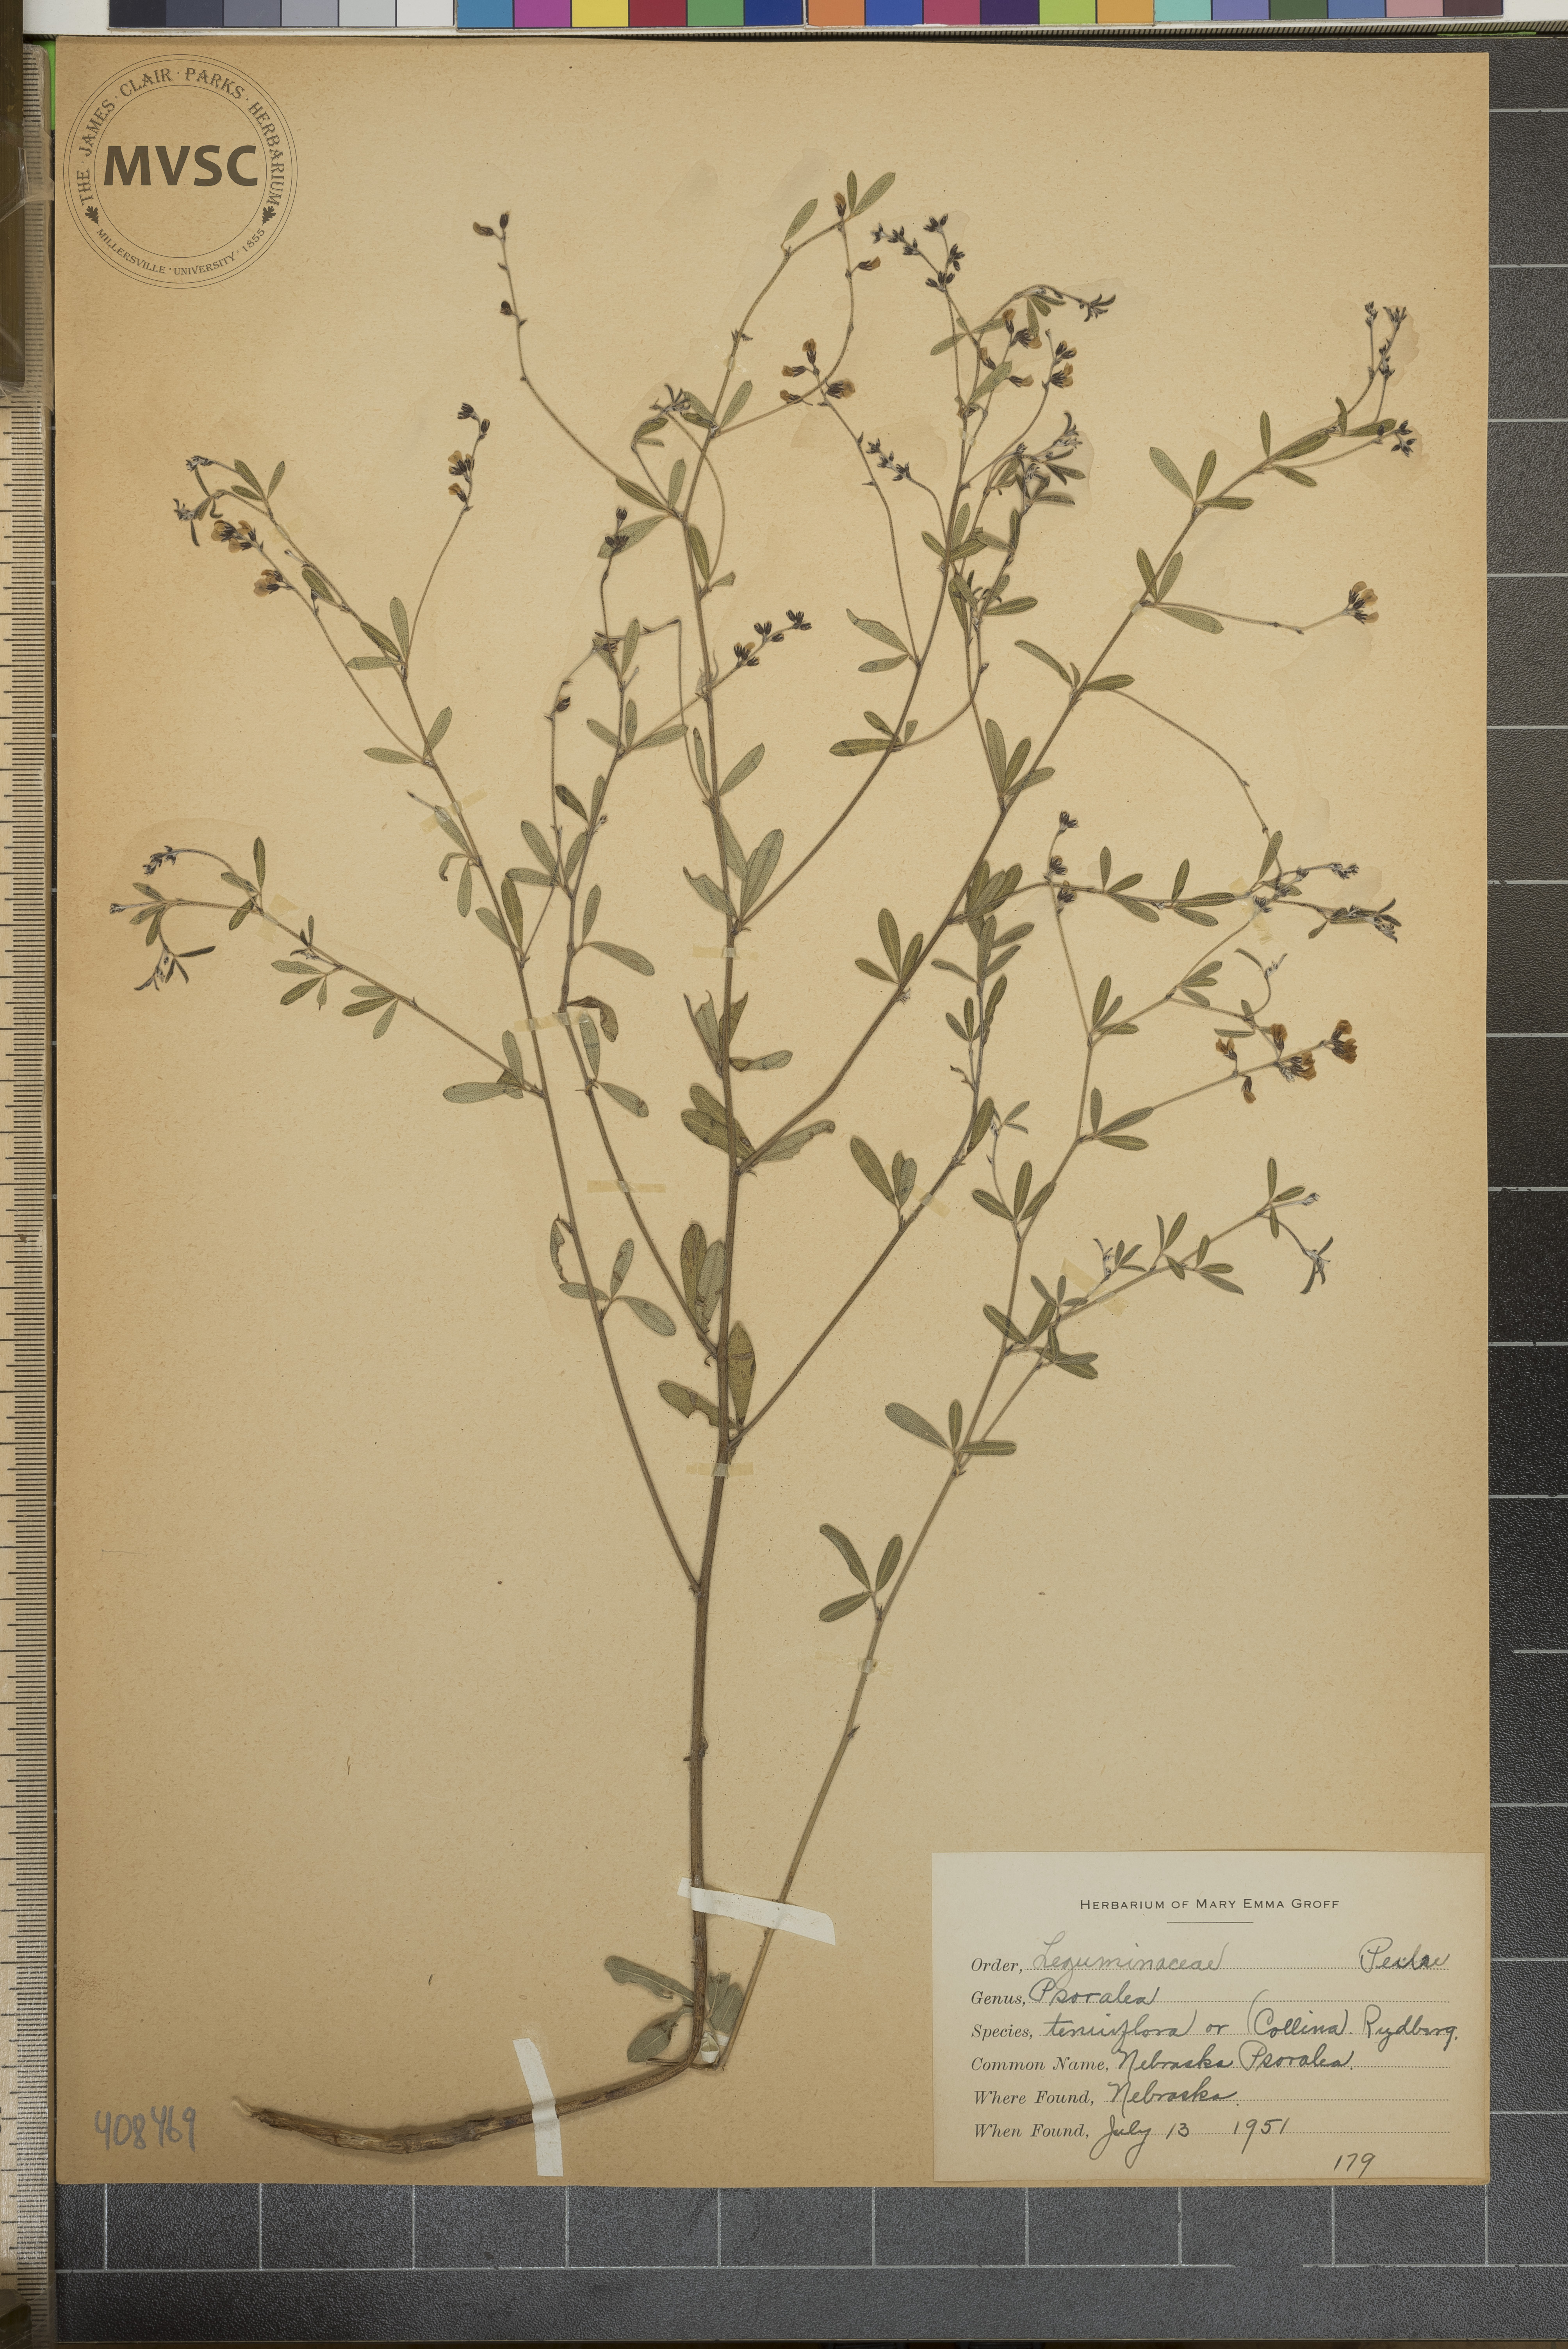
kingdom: Plantae
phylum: Tracheophyta
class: Magnoliopsida
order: Fabales
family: Fabaceae
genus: Pediomelum
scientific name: Pediomelum tenuiflorum
